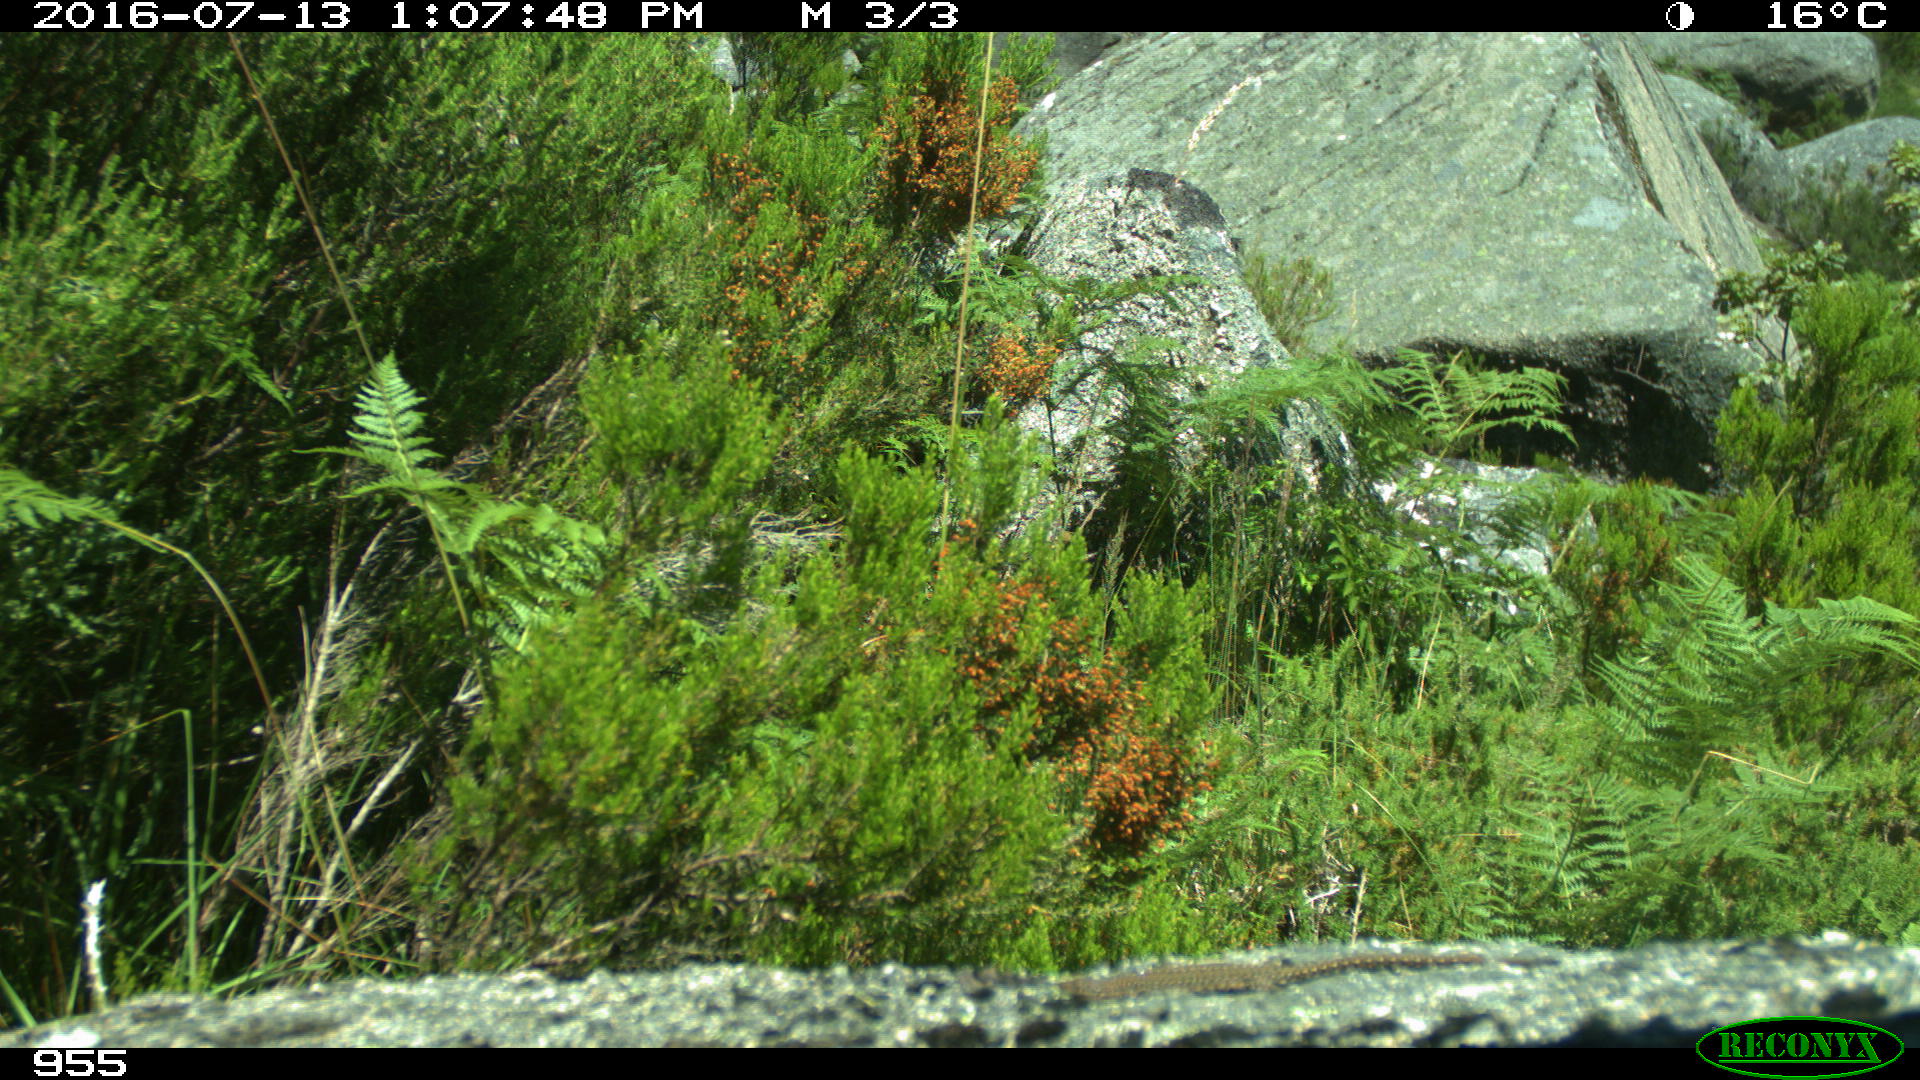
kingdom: Animalia
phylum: Chordata
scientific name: Chordata
